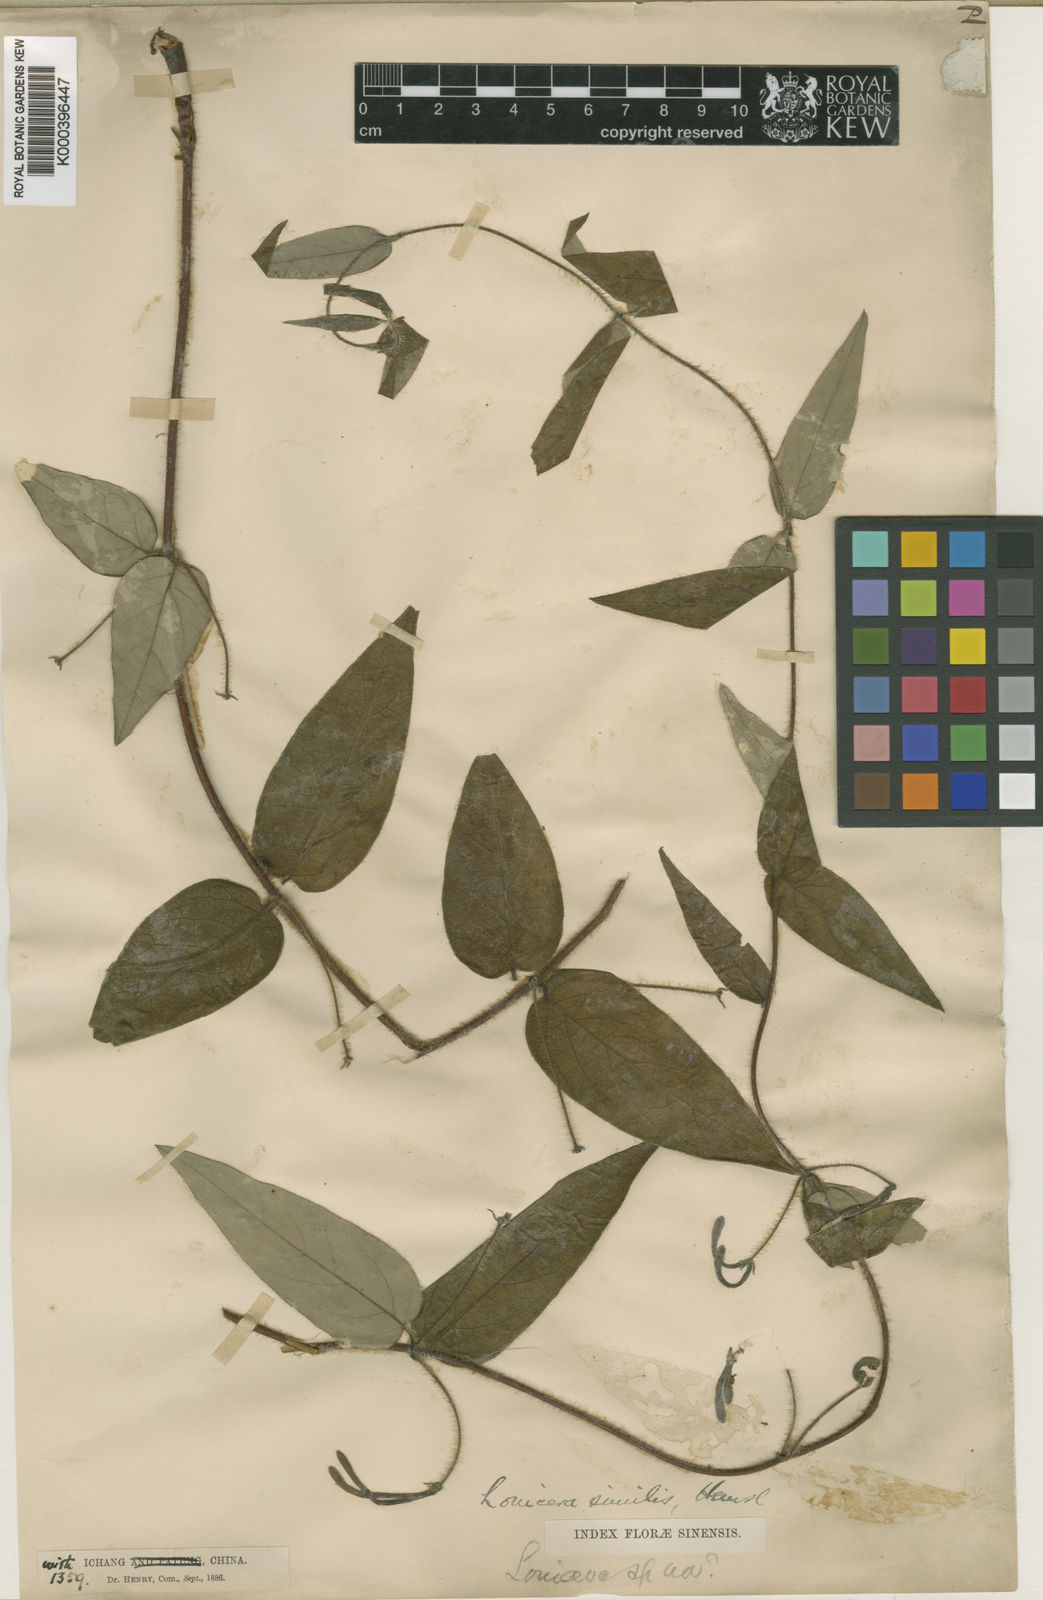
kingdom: Plantae
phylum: Tracheophyta
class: Magnoliopsida
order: Dipsacales
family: Caprifoliaceae
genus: Lonicera
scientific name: Lonicera similis
